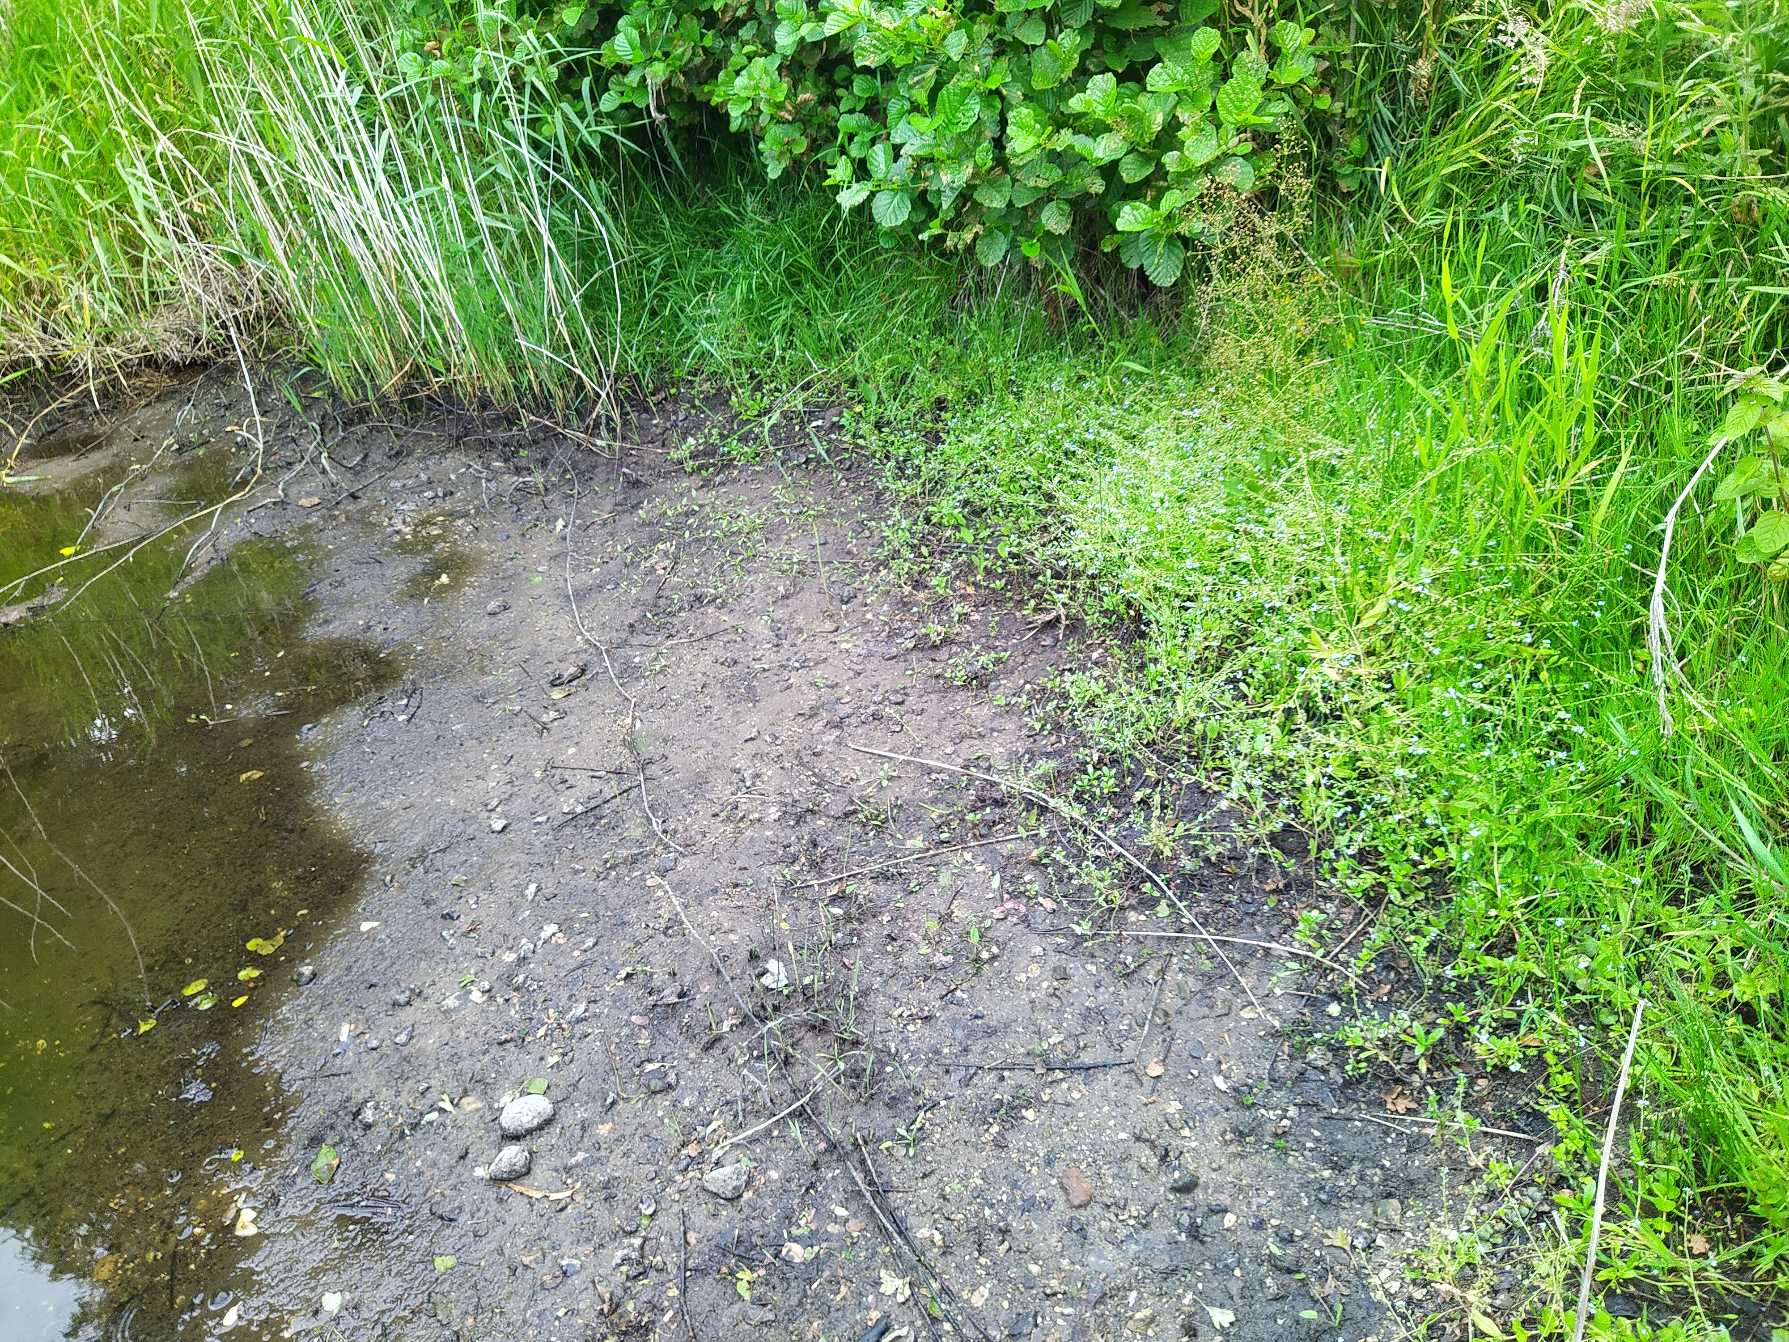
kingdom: Plantae
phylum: Tracheophyta
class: Magnoliopsida
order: Boraginales
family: Boraginaceae
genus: Myosotis
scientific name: Myosotis scorpioides
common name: Eng-forglemmigej
